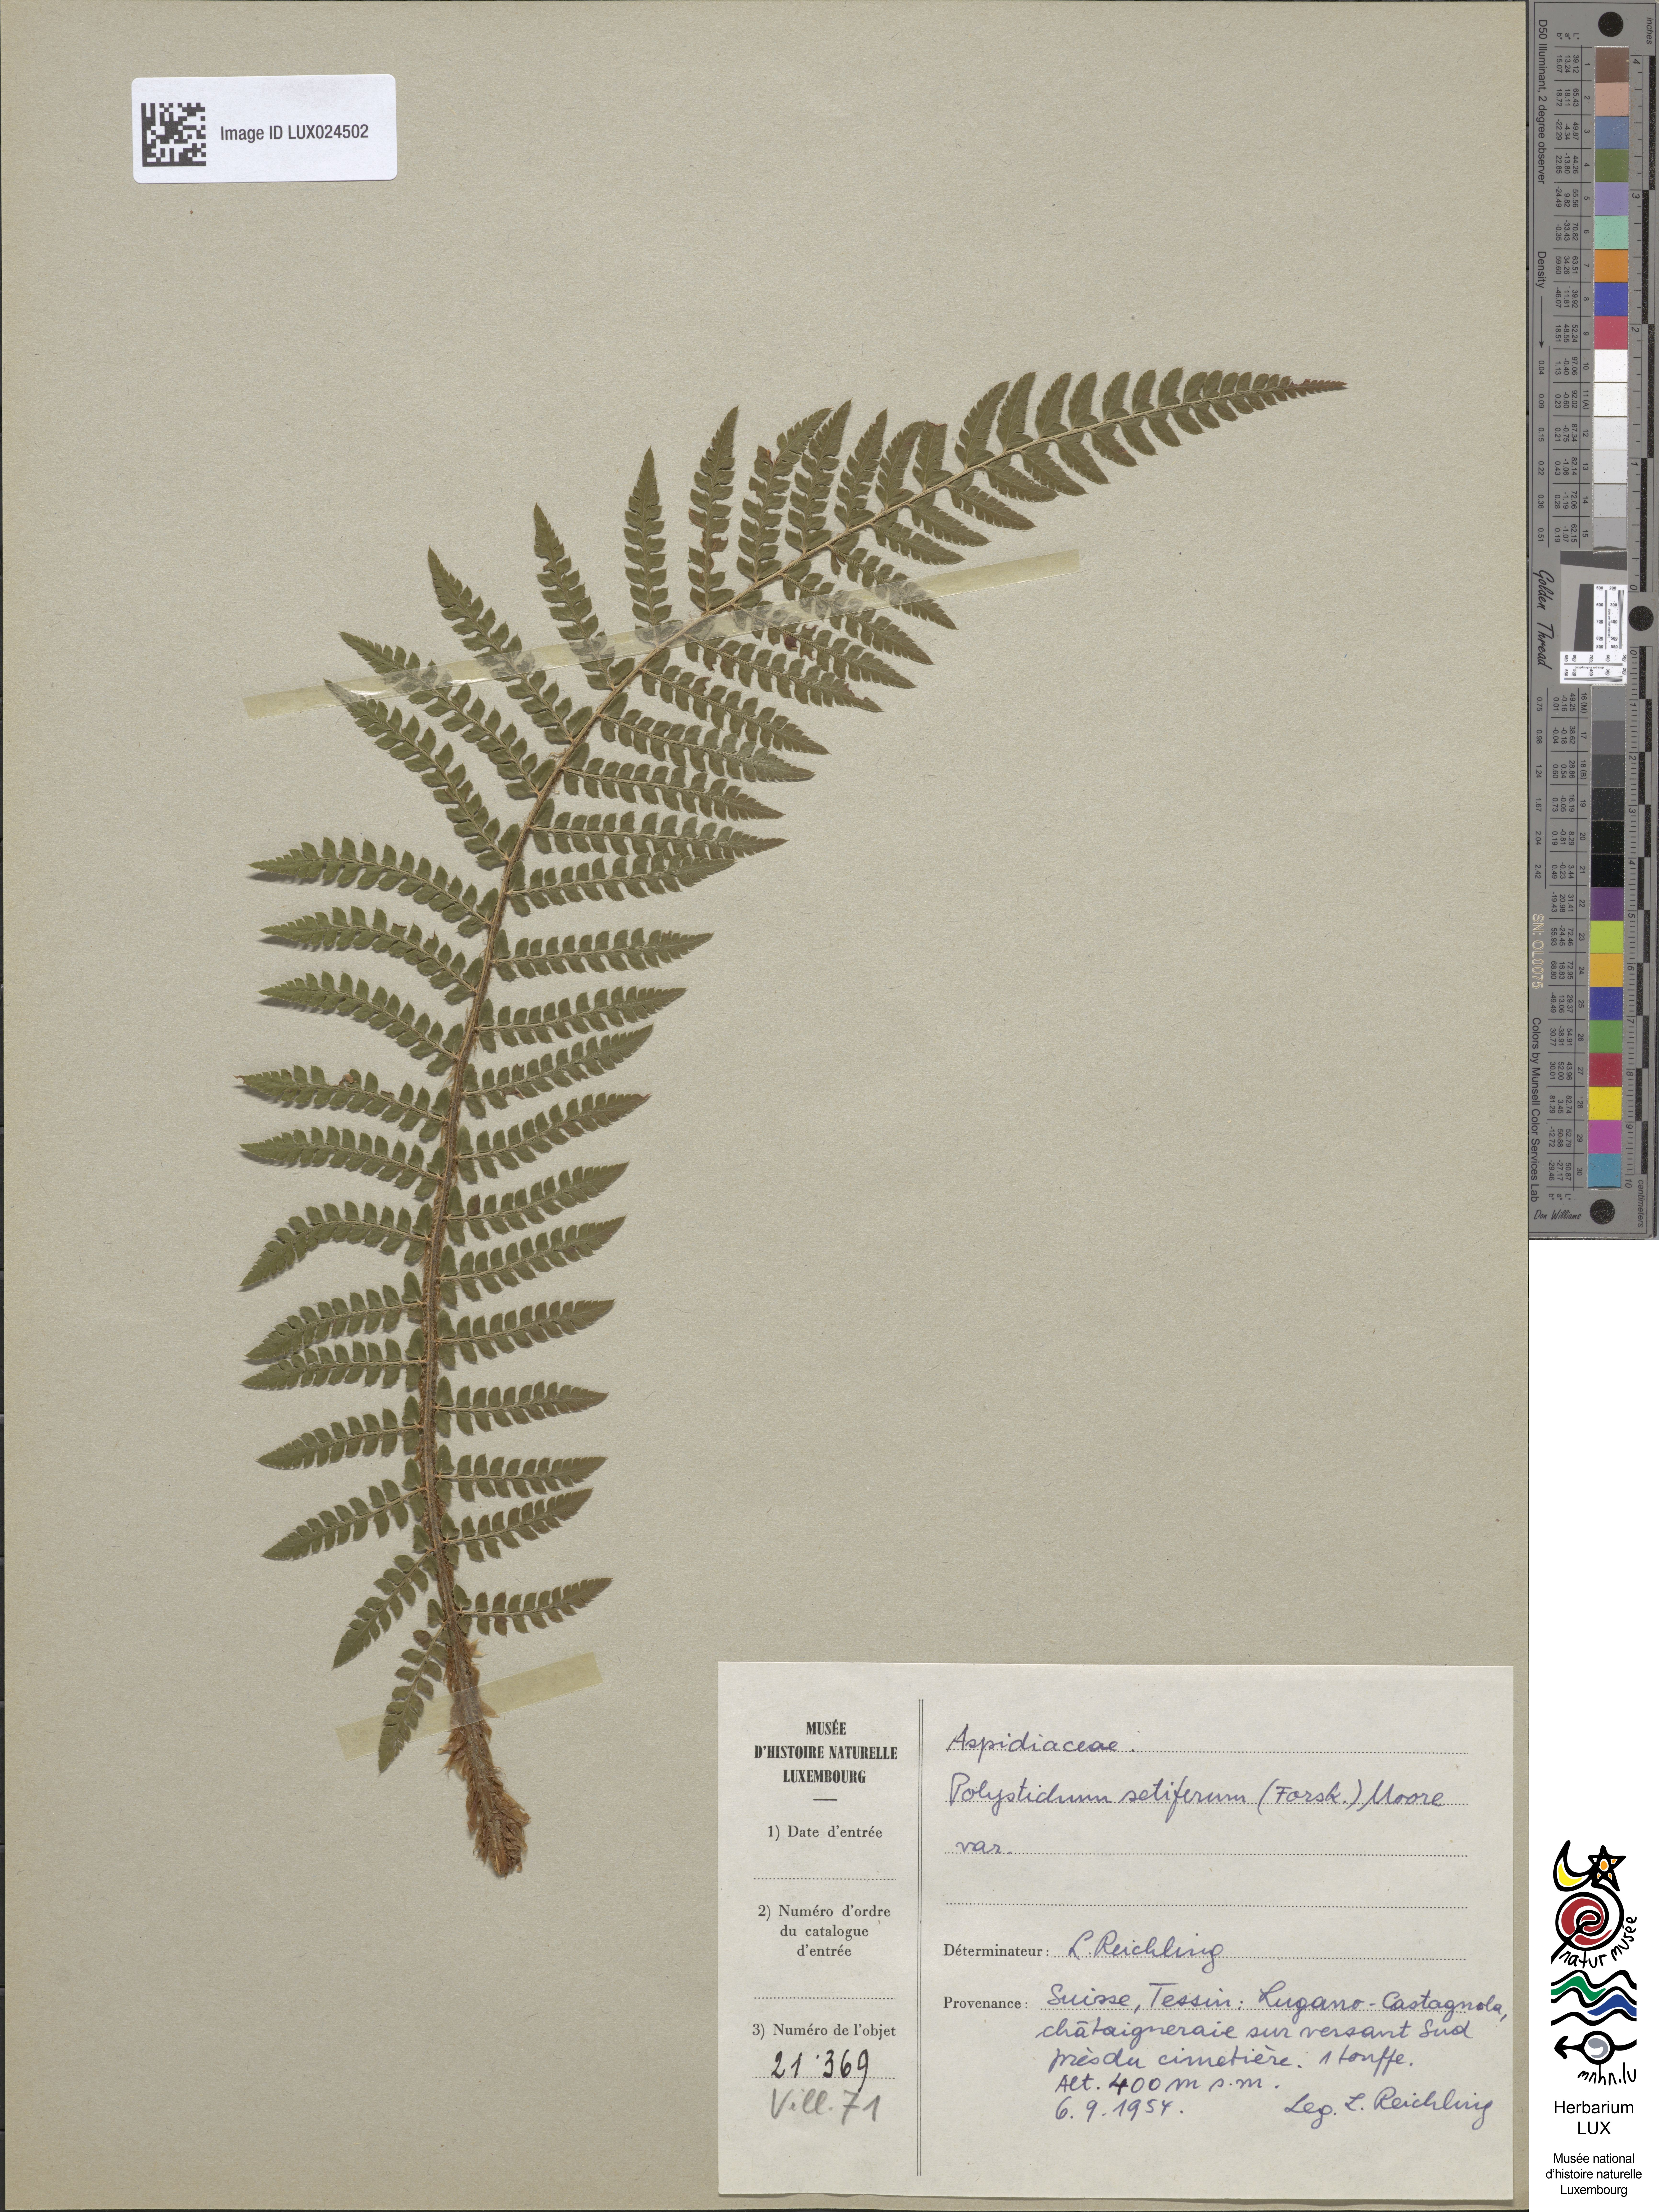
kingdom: Plantae
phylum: Tracheophyta
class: Polypodiopsida
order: Polypodiales
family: Dryopteridaceae
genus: Polystichum
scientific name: Polystichum setiferum
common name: Soft shield-fern
